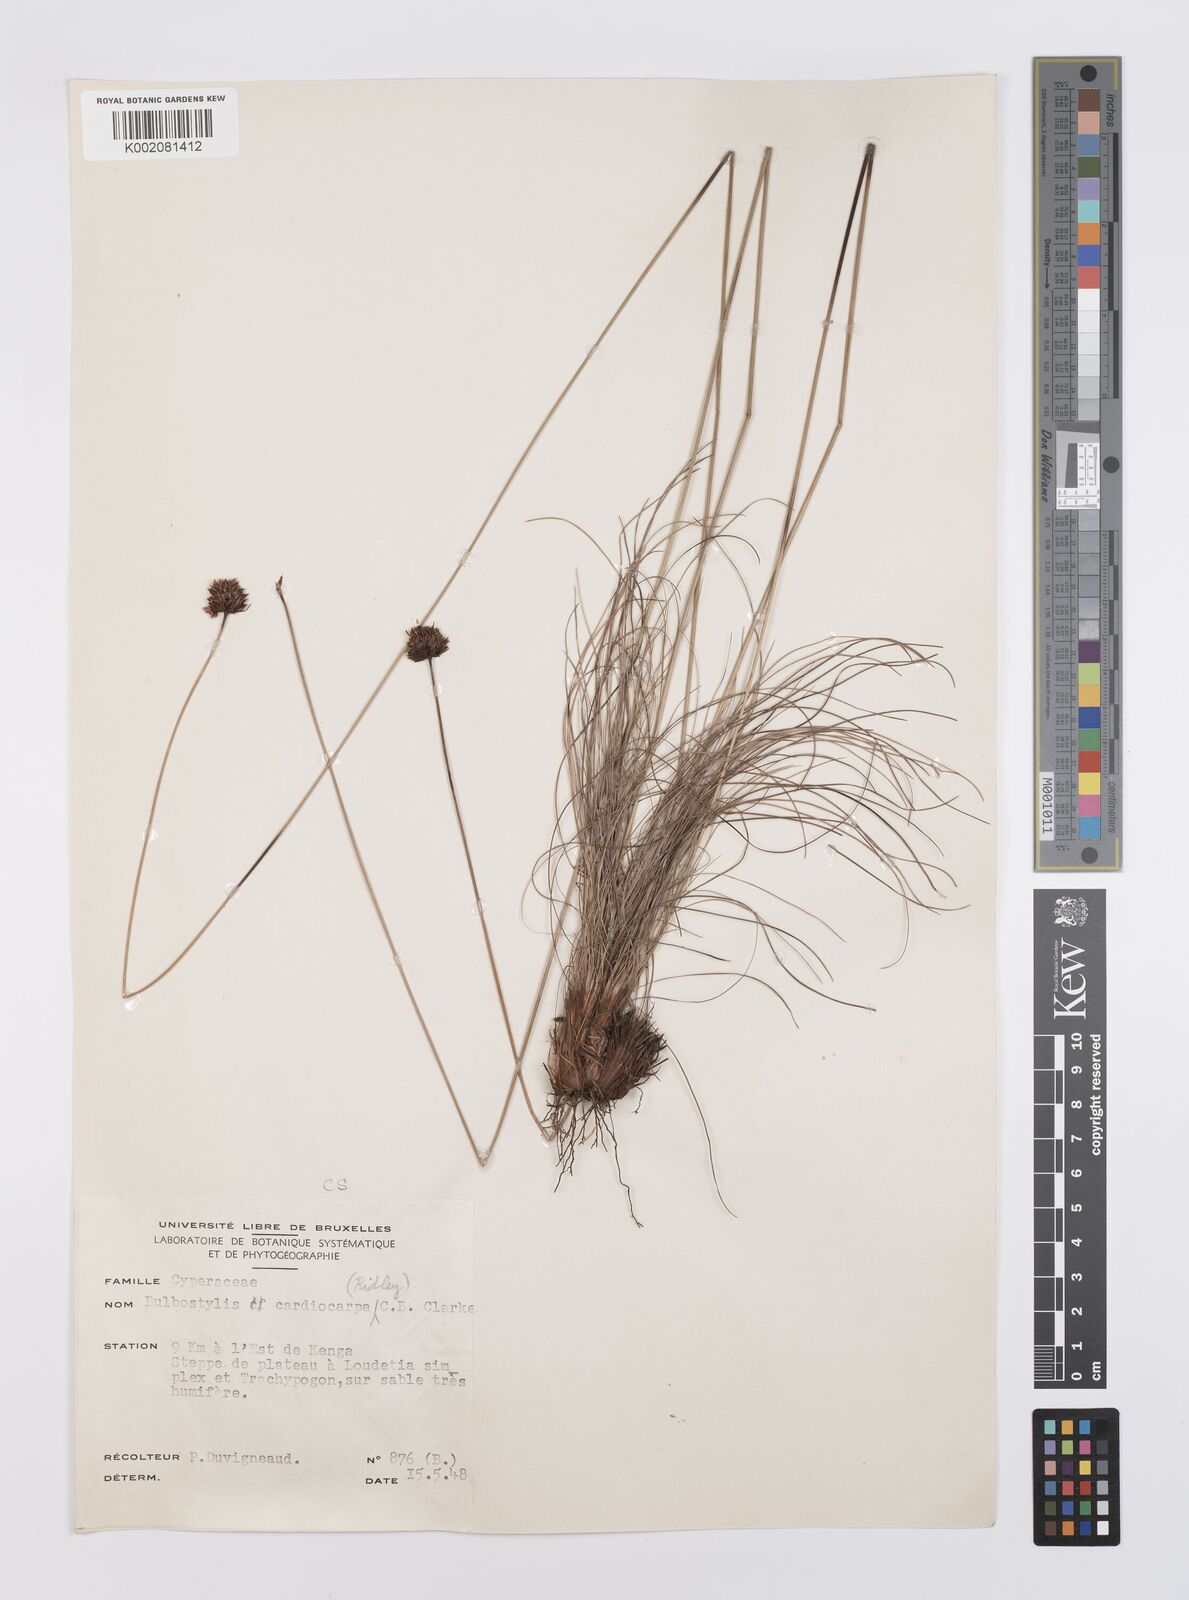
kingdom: Plantae
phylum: Tracheophyta
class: Liliopsida
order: Poales
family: Cyperaceae
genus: Bulbostylis
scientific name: Bulbostylis filamentosa
